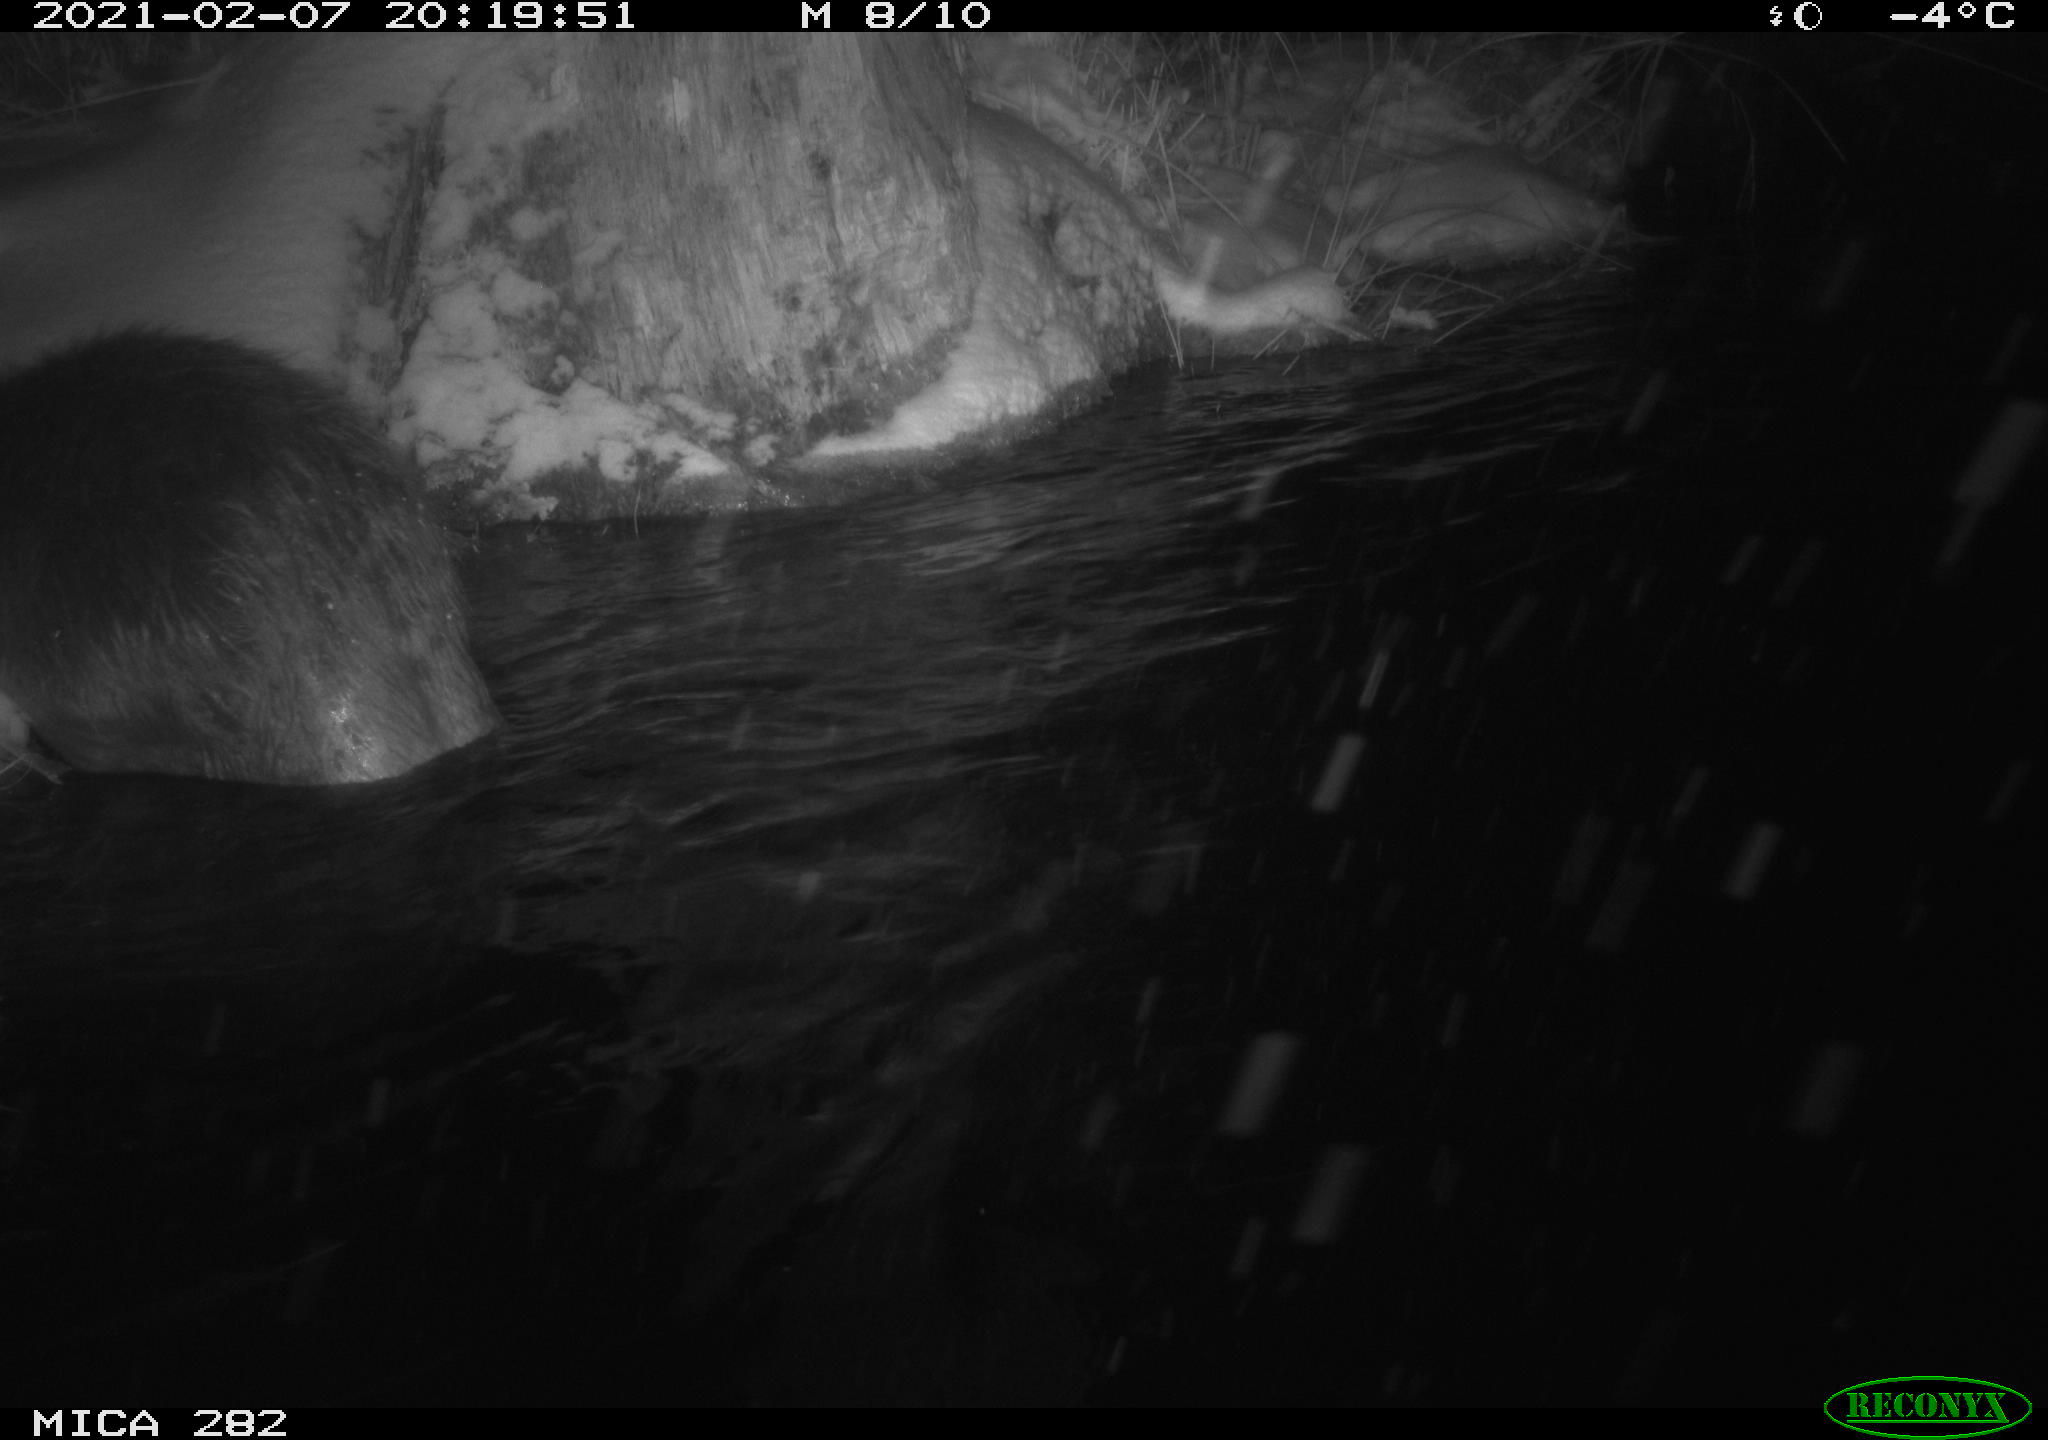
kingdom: Animalia
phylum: Chordata
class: Mammalia
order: Rodentia
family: Castoridae
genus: Castor
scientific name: Castor fiber
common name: Eurasian beaver
